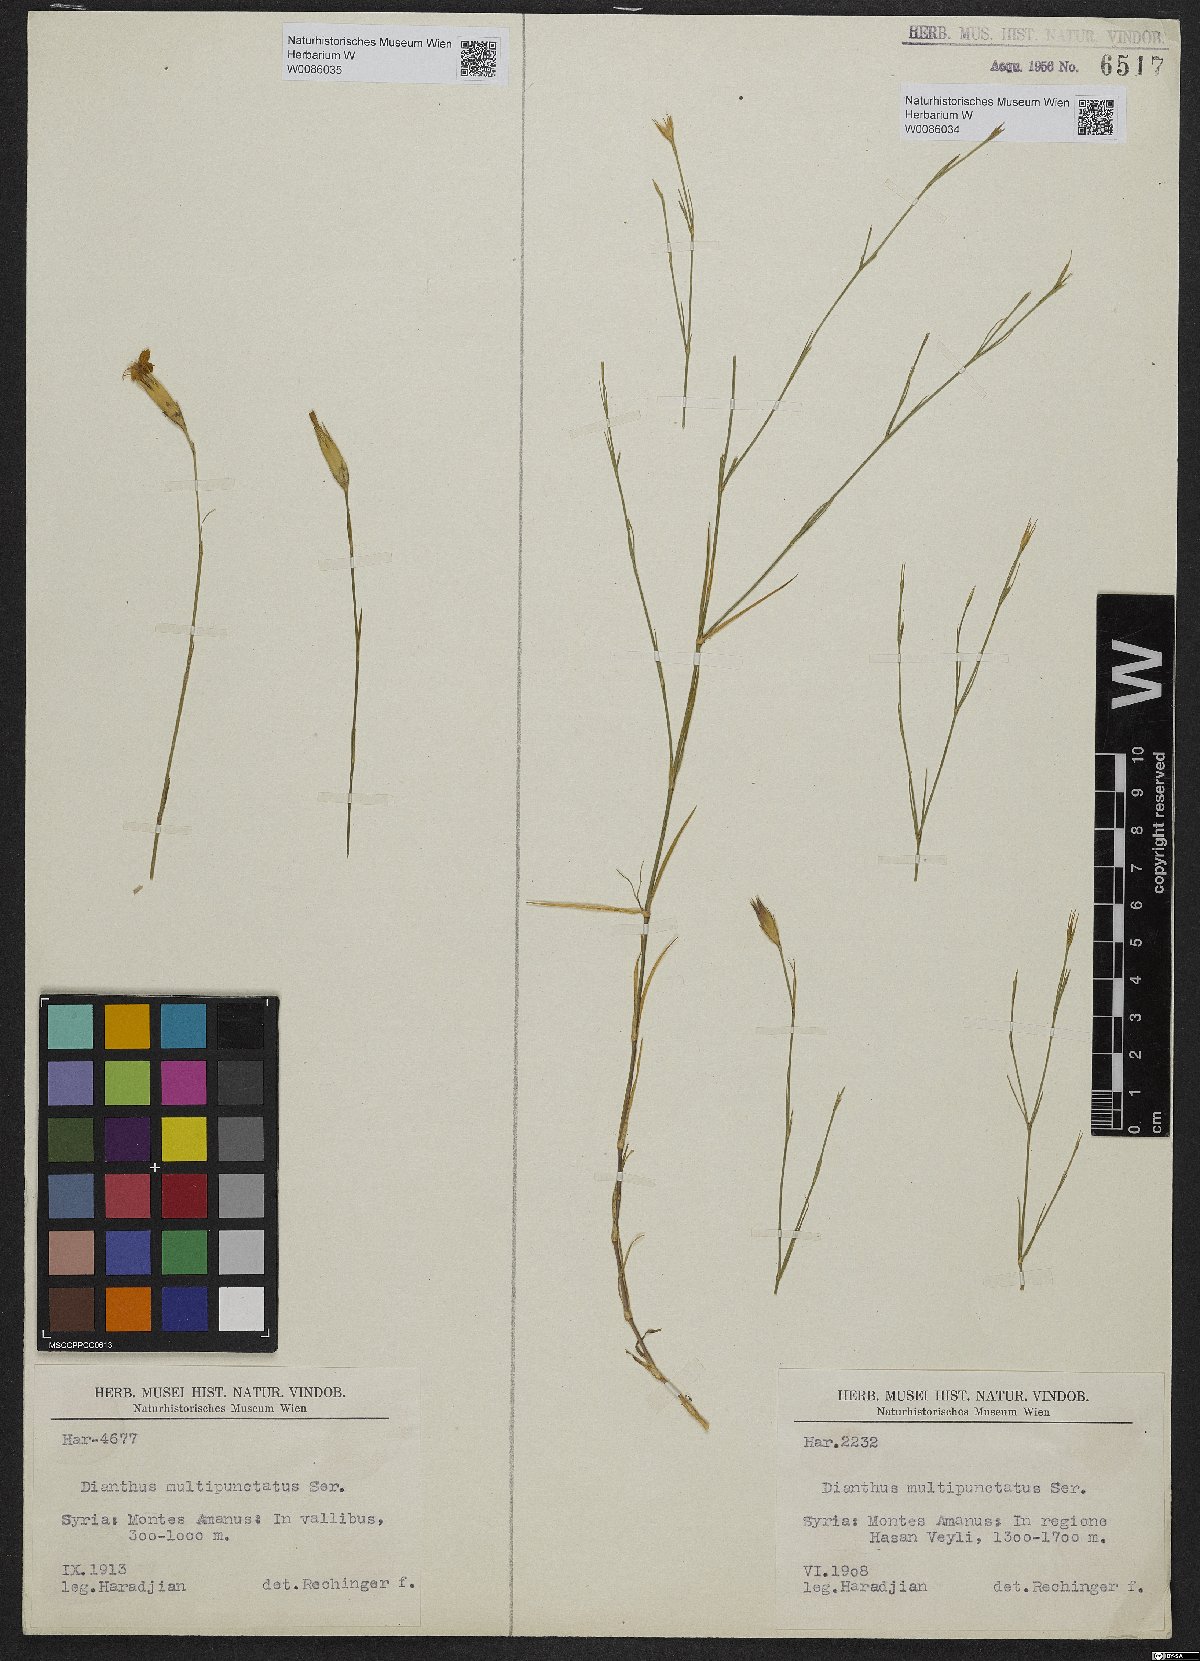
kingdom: Plantae
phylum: Tracheophyta
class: Magnoliopsida
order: Caryophyllales
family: Caryophyllaceae
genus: Dianthus
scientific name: Dianthus strictus
